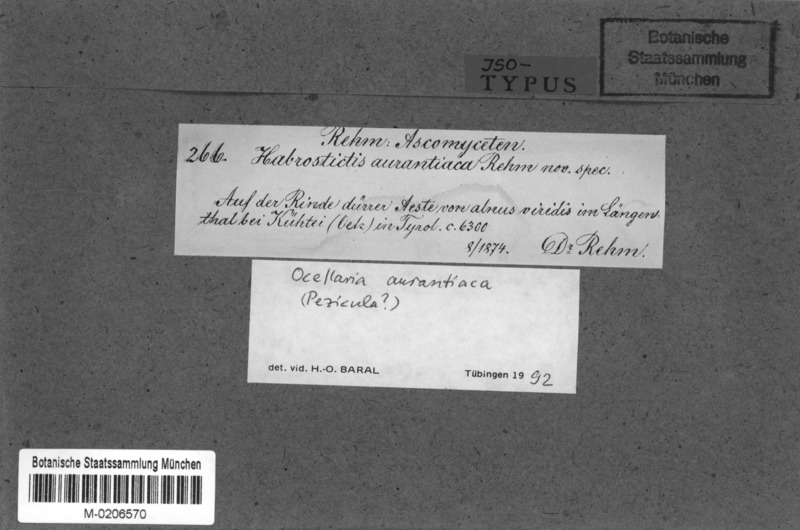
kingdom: Fungi
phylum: Ascomycota
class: Leotiomycetes
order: Helotiales
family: Dermateaceae
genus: Ocellaria
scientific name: Ocellaria aurantiaca
